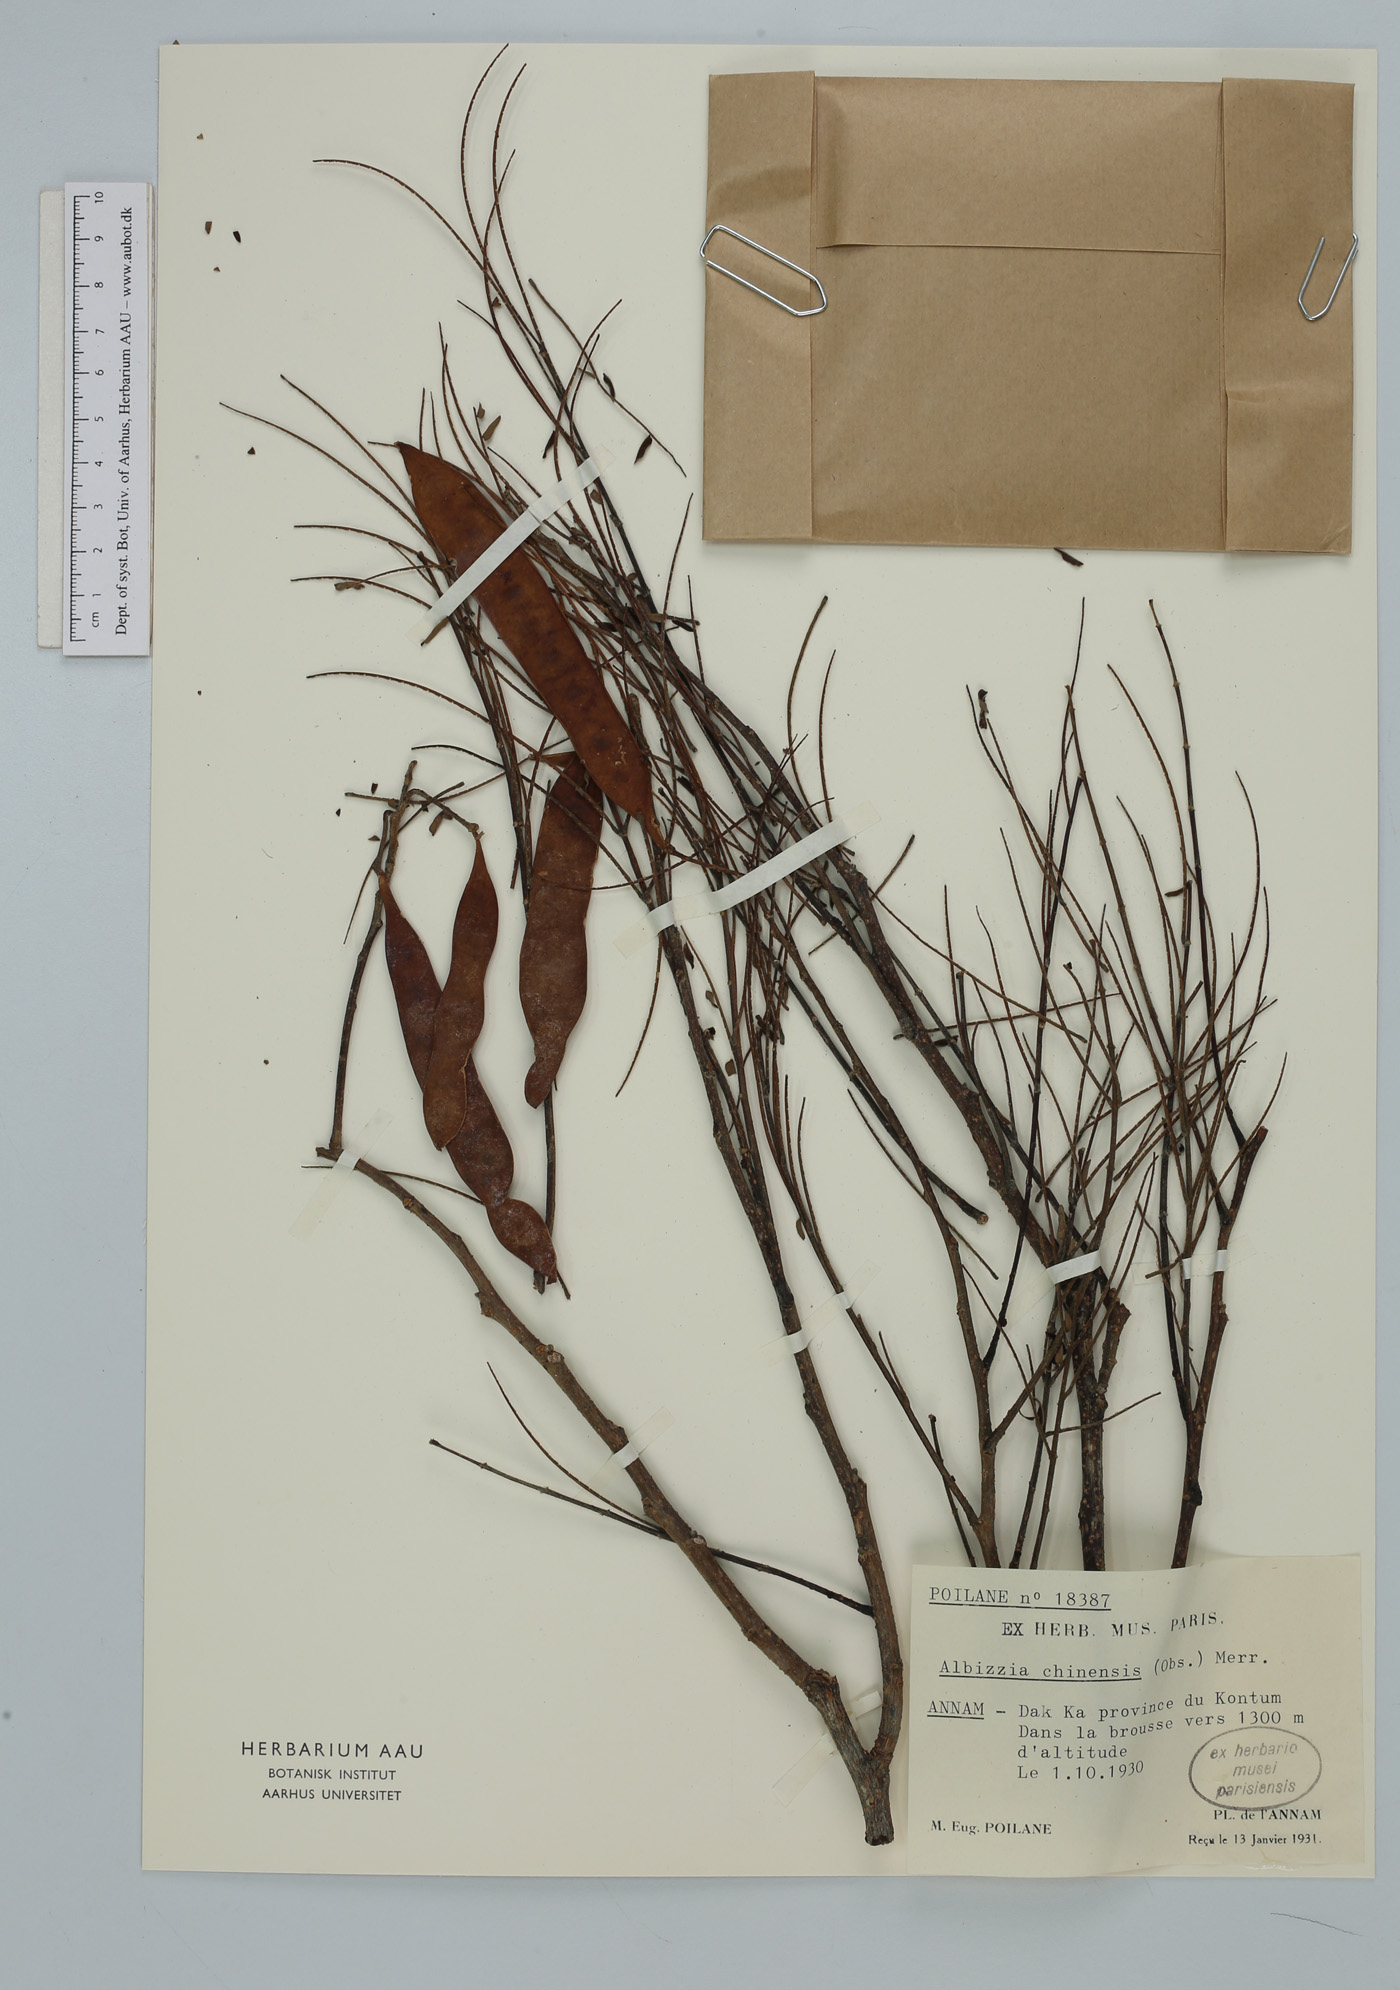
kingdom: Plantae
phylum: Tracheophyta
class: Magnoliopsida
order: Fabales
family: Fabaceae
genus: Albizia
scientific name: Albizia chinensis
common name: Chinese albizia
